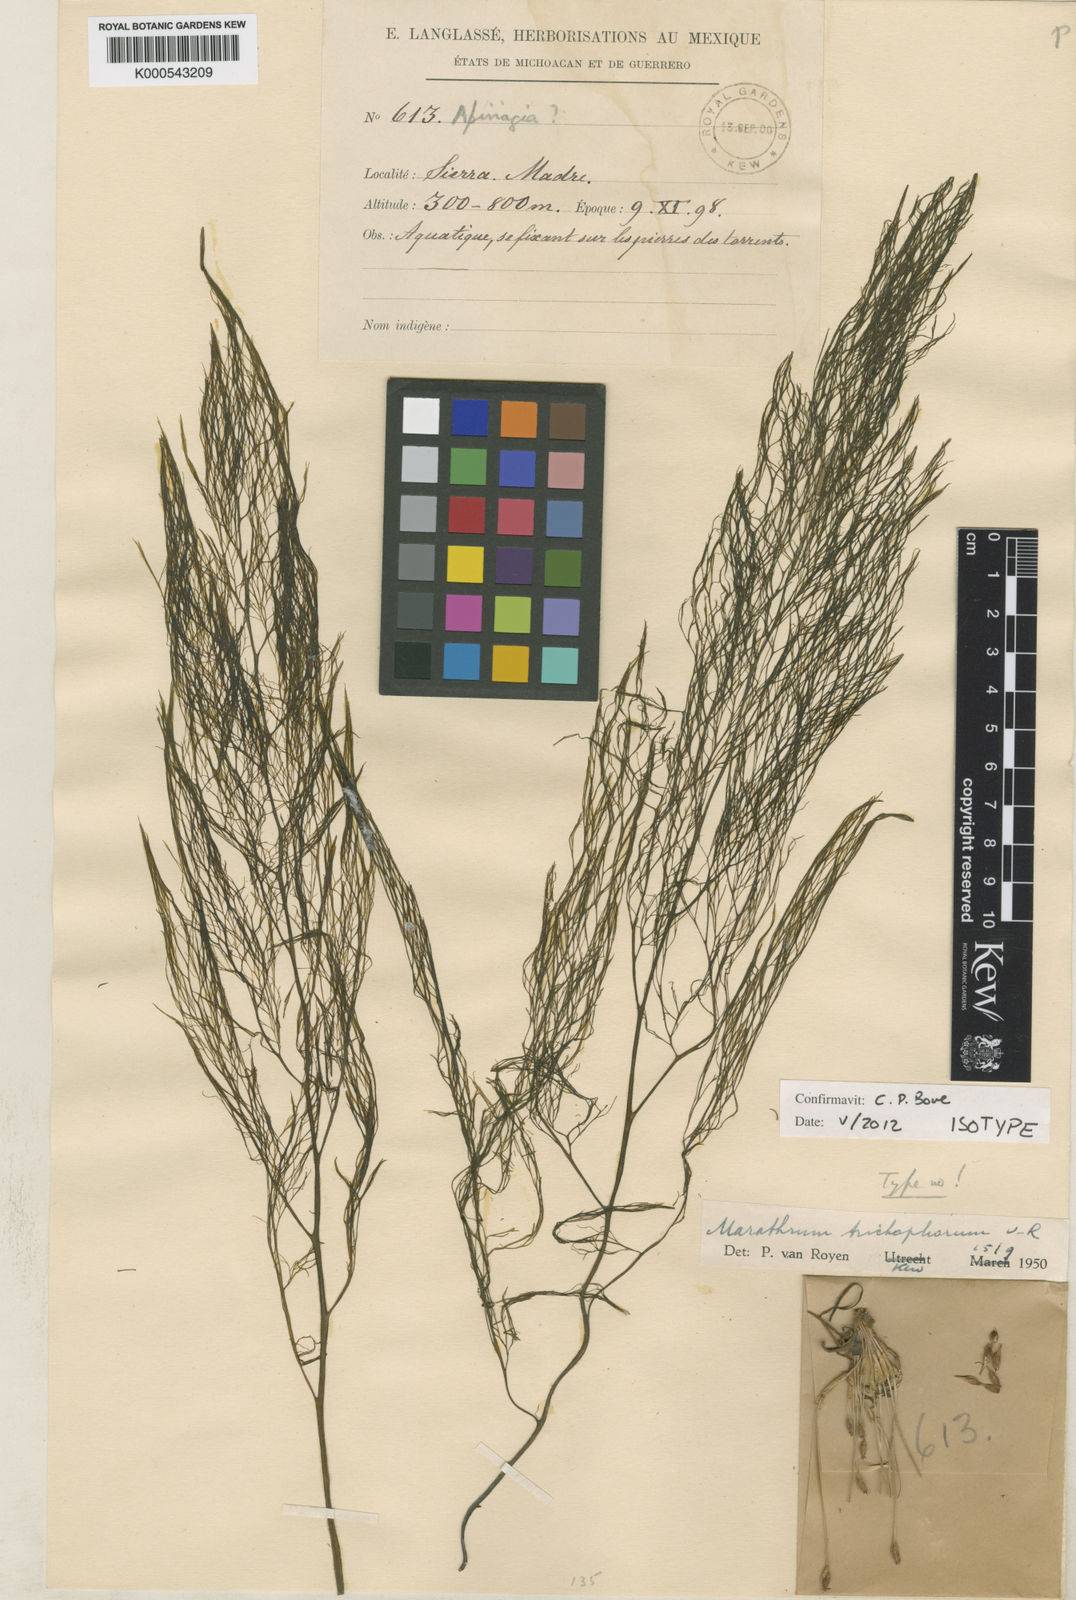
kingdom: Plantae
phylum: Tracheophyta
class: Magnoliopsida
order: Malpighiales
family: Podostemaceae
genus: Marathrum
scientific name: Marathrum trichophorum
